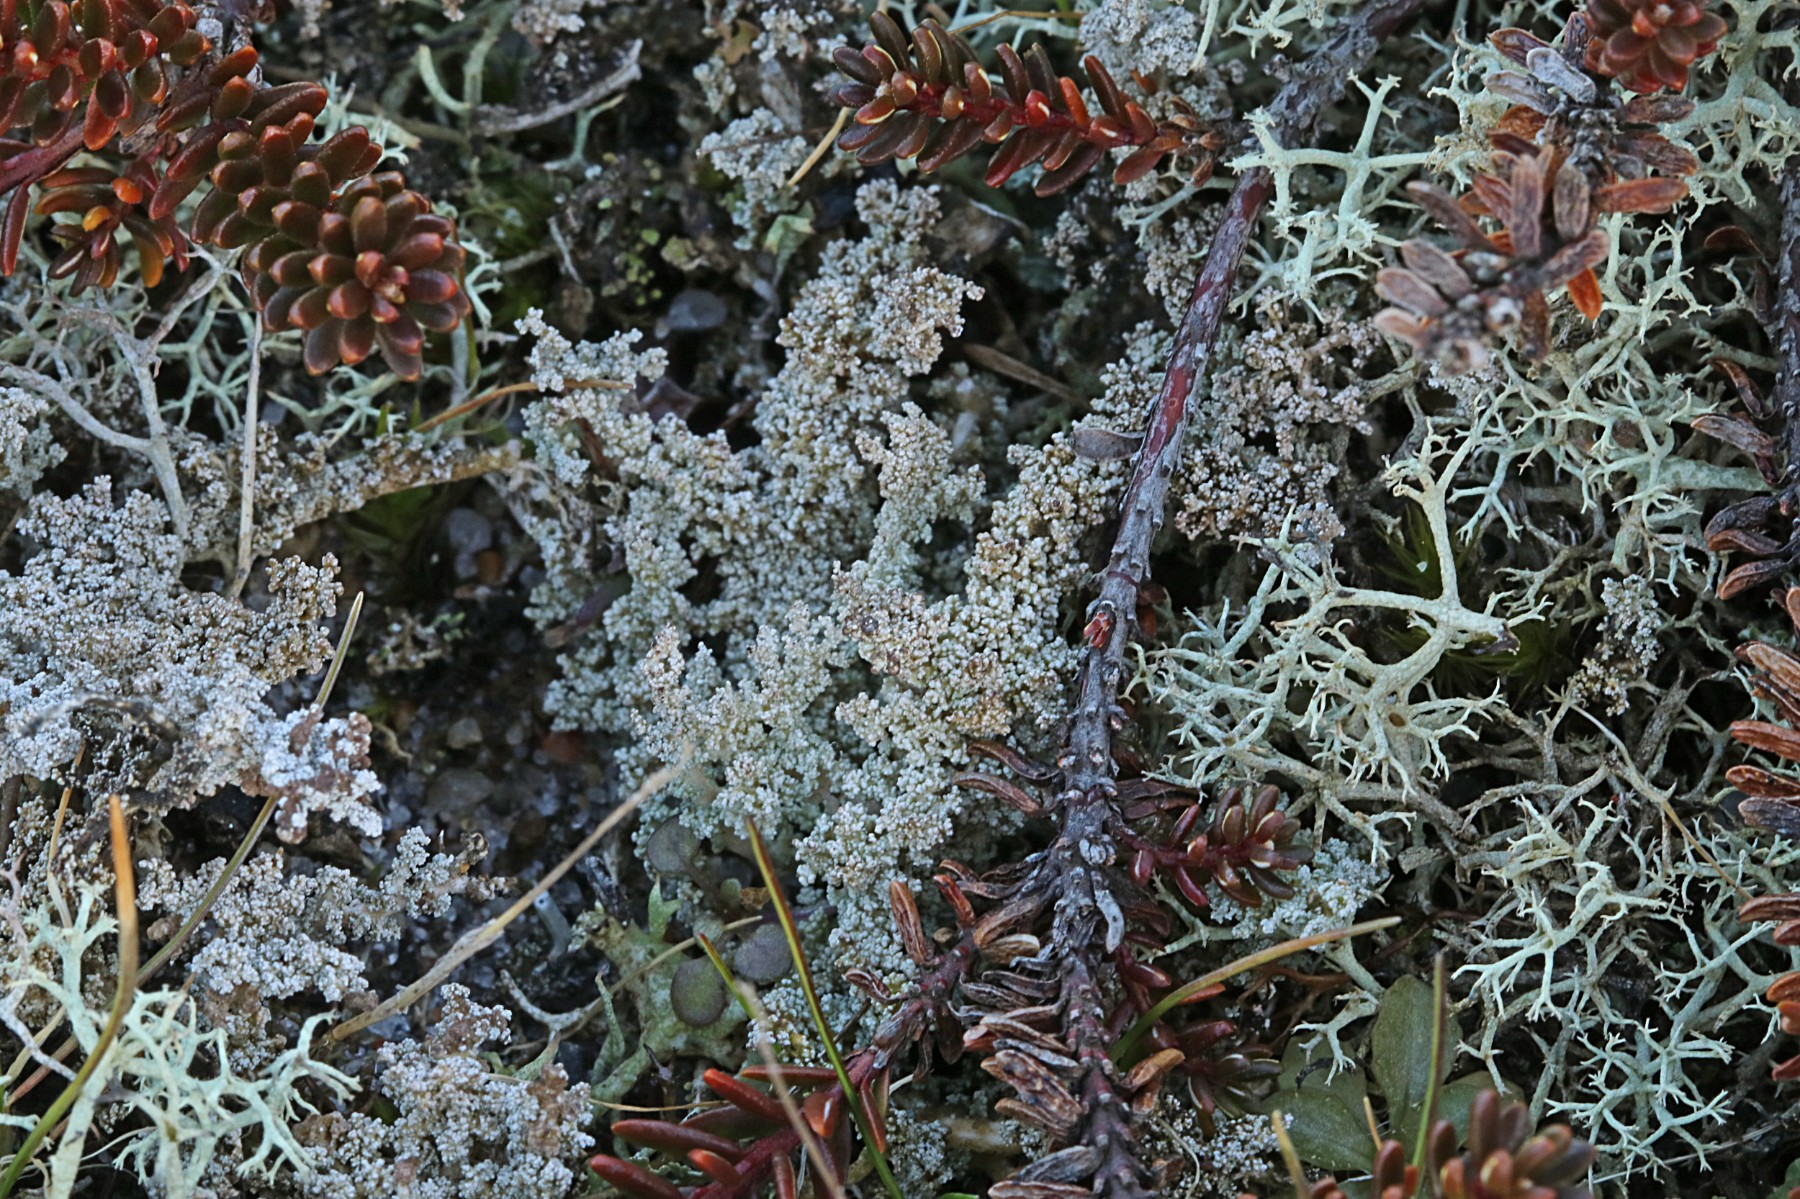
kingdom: Fungi
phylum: Ascomycota
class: Lecanoromycetes
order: Lecanorales
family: Stereocaulaceae
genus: Stereocaulon
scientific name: Stereocaulon saxatile
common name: klit-korallav
